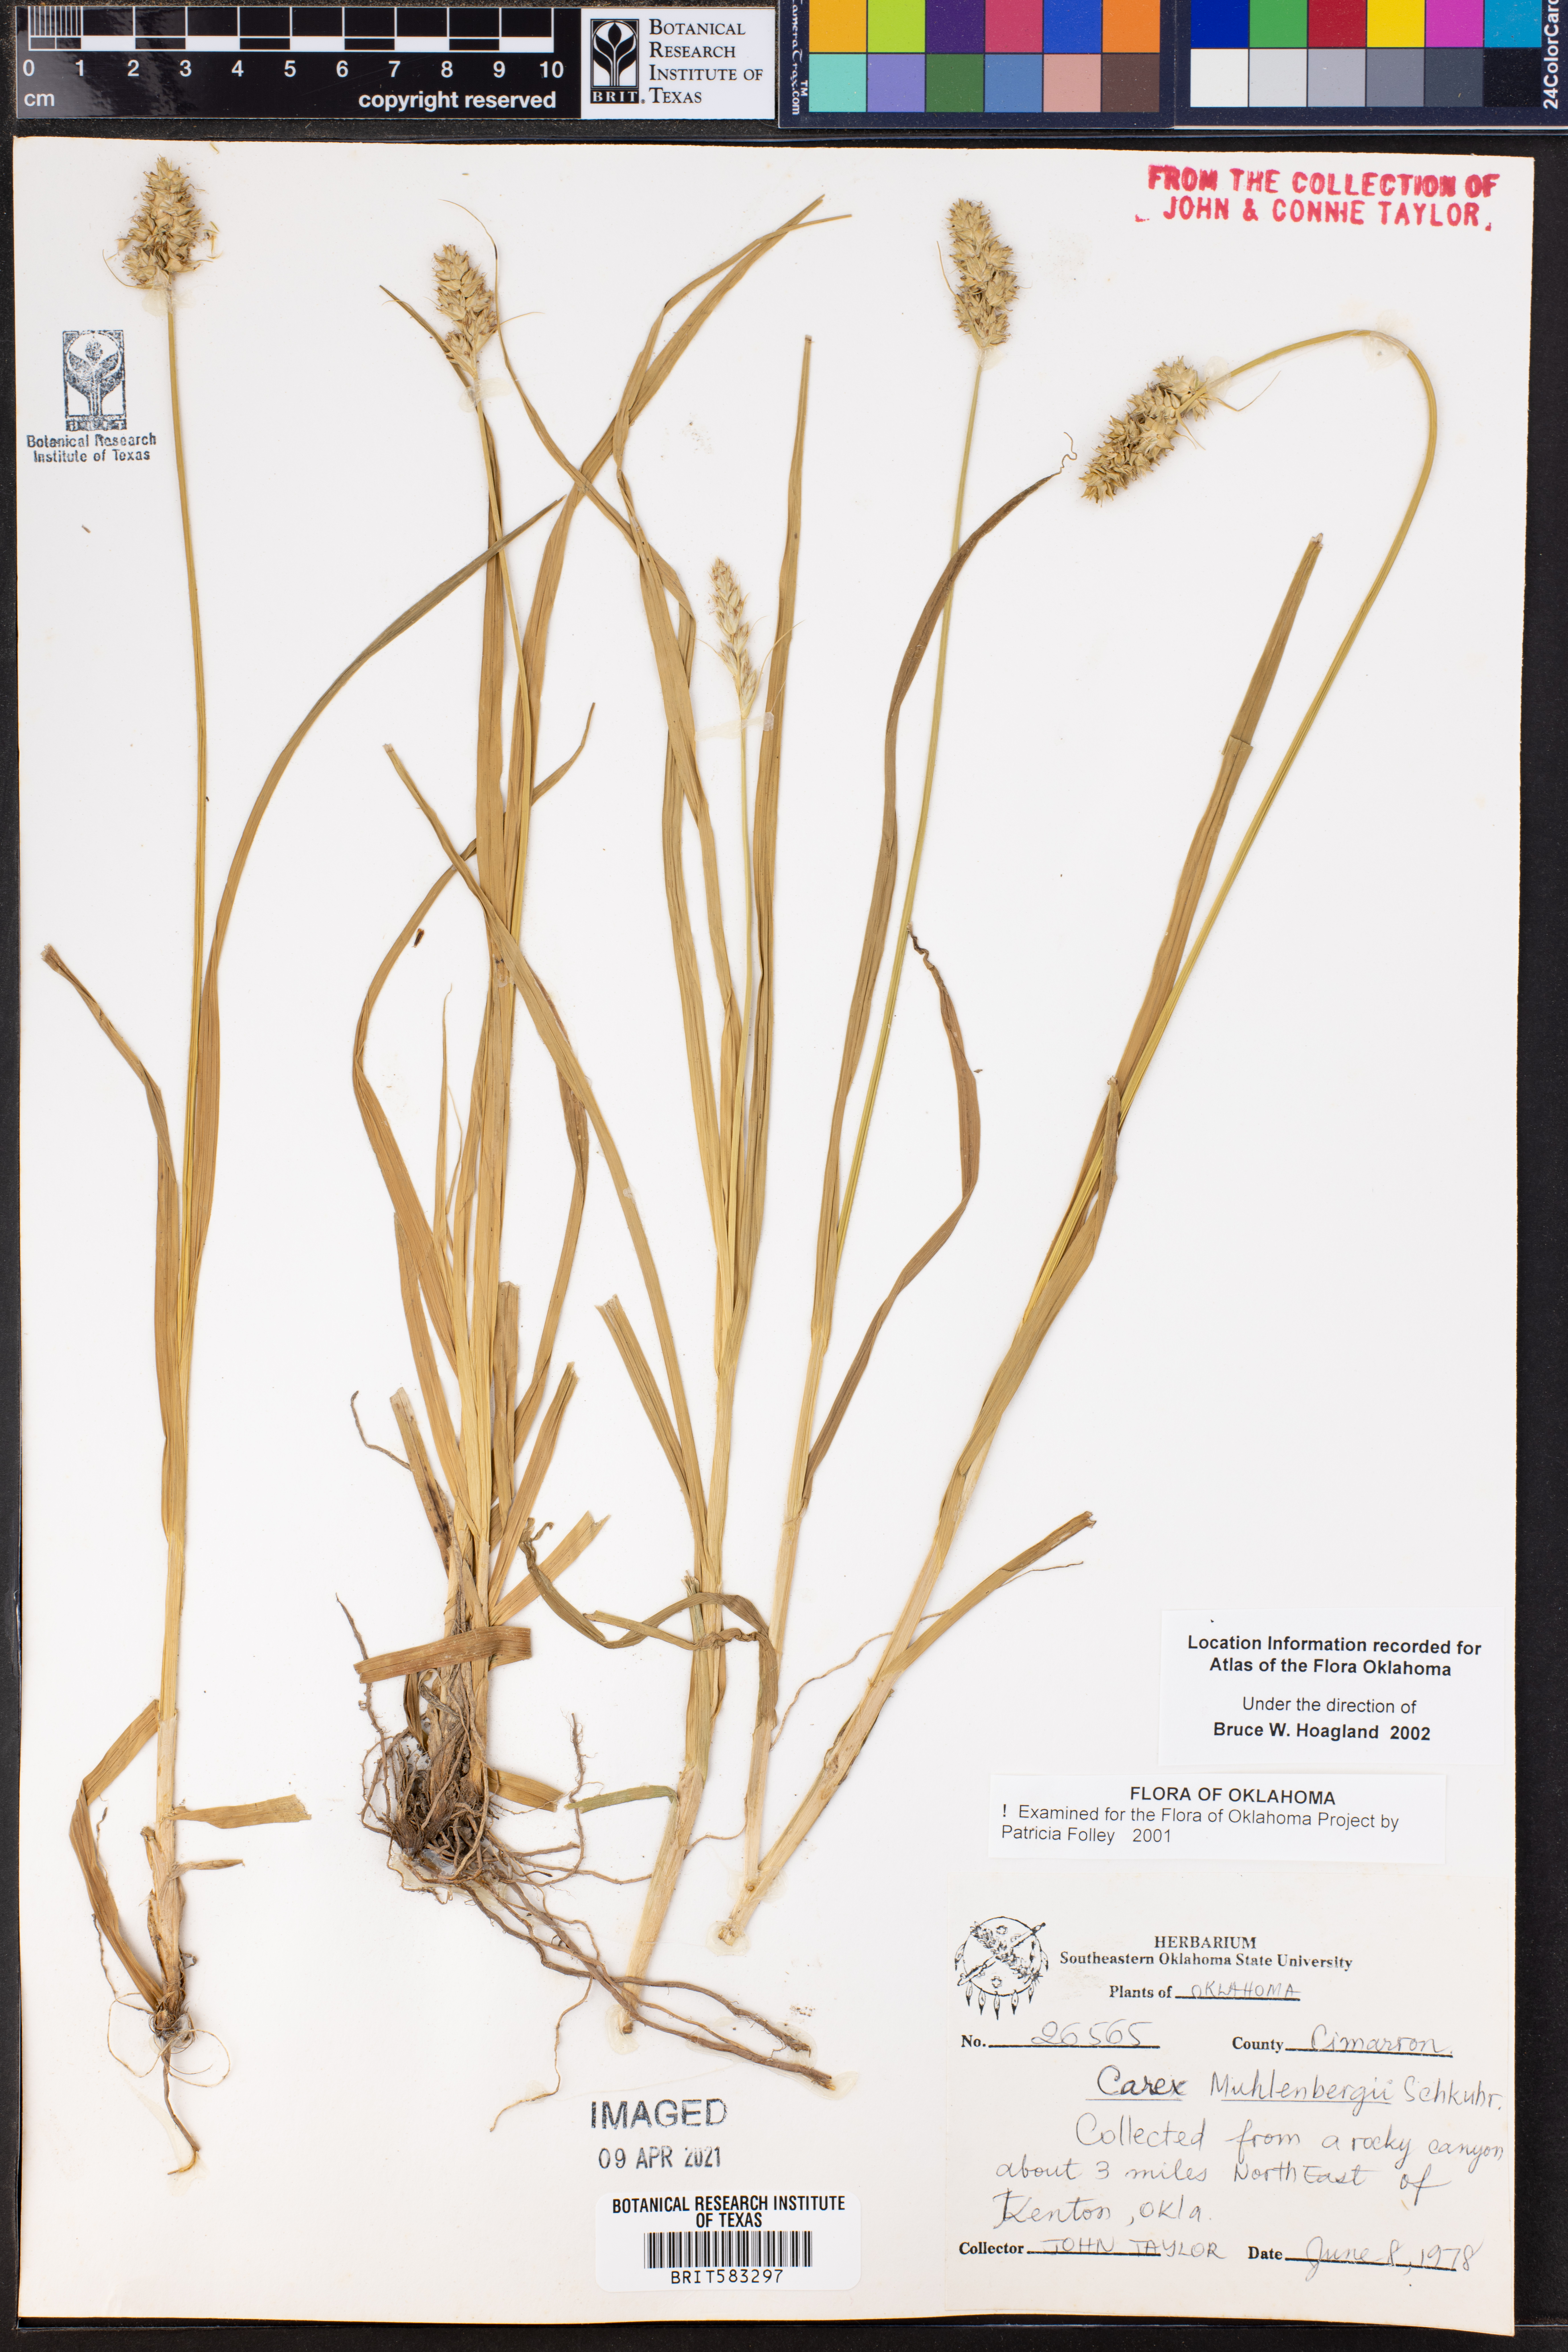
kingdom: Plantae
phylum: Tracheophyta
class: Liliopsida
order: Poales
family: Cyperaceae
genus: Carex
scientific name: Carex vulpinoidea
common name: American fox-sedge
